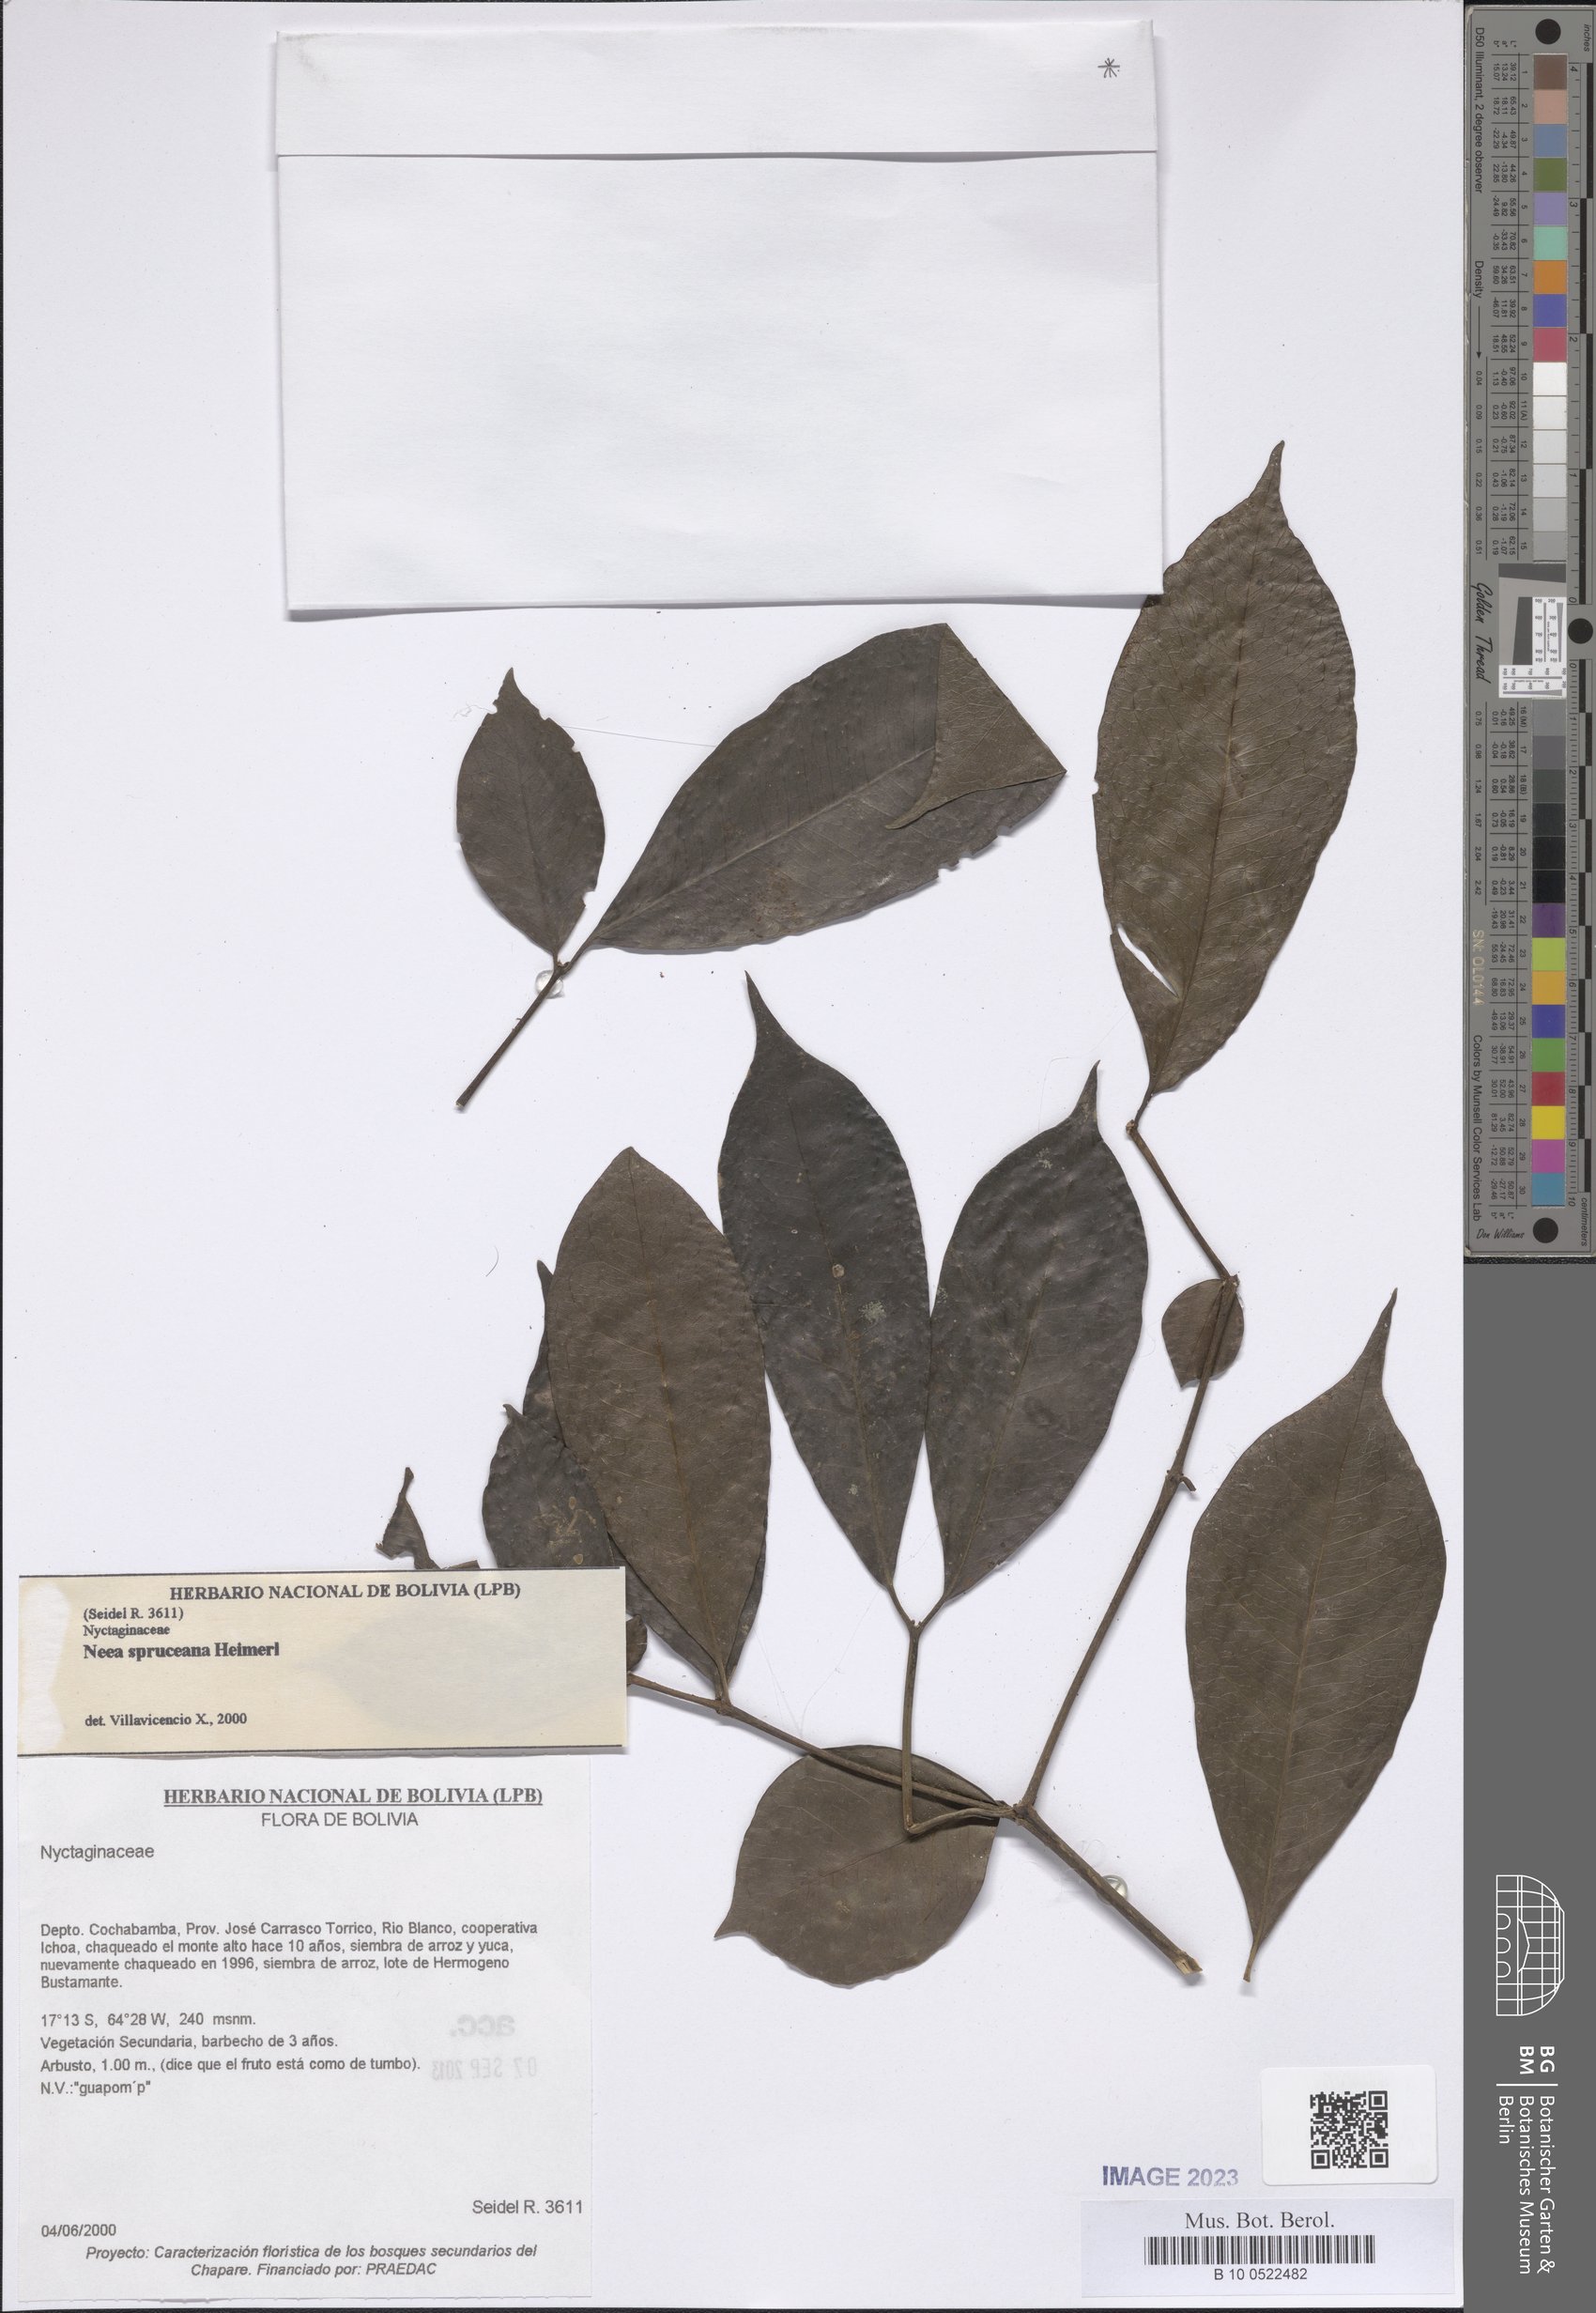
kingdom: Plantae
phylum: Tracheophyta
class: Magnoliopsida
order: Caryophyllales
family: Nyctaginaceae
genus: Neea
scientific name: Neea spruceana
